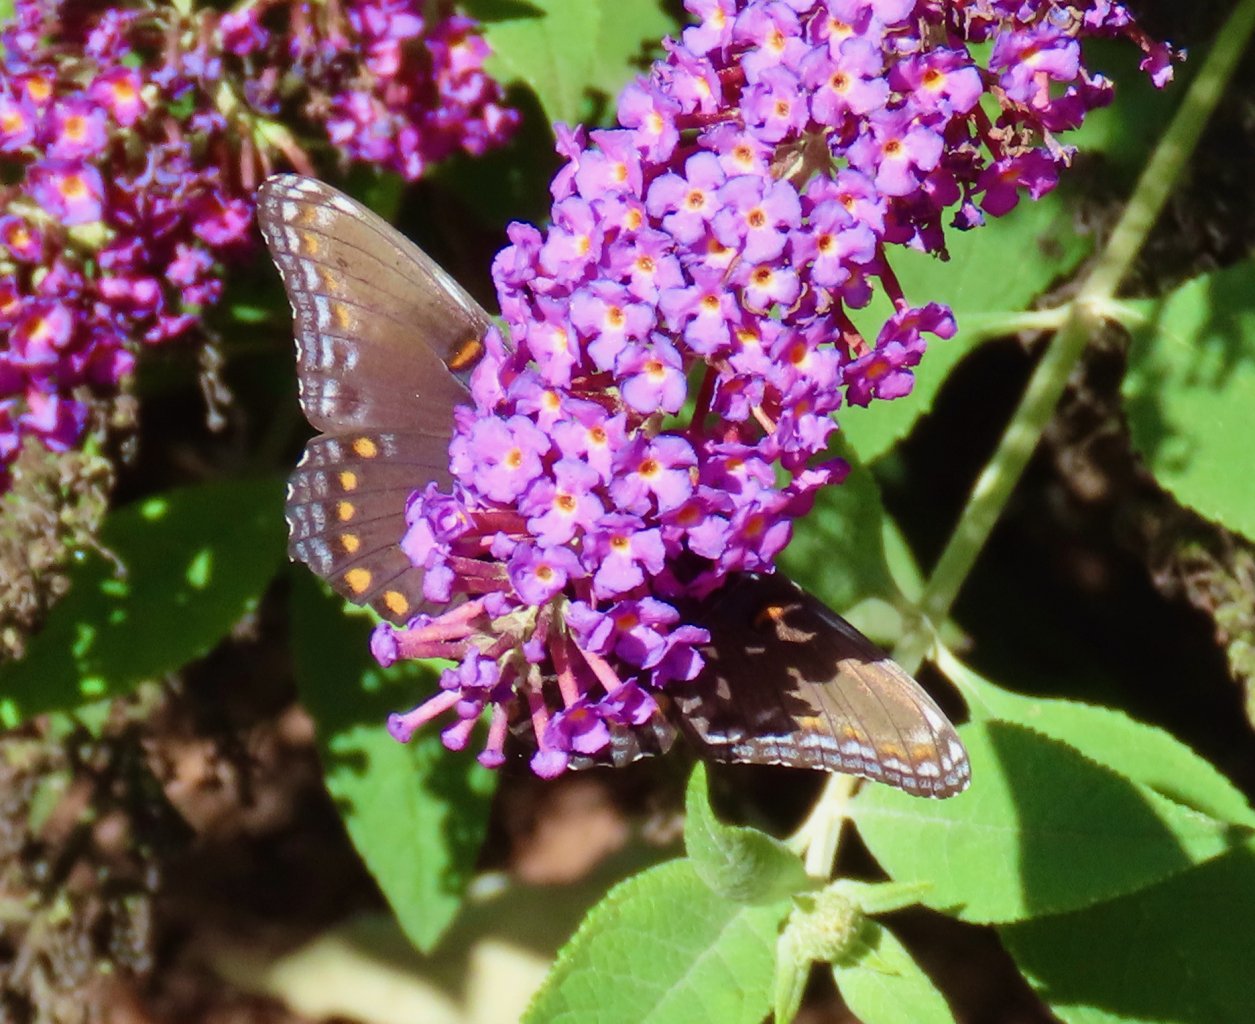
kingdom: Animalia
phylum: Arthropoda
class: Insecta
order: Lepidoptera
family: Nymphalidae
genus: Limenitis
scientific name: Limenitis arthemis
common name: Red-spotted Admiral
